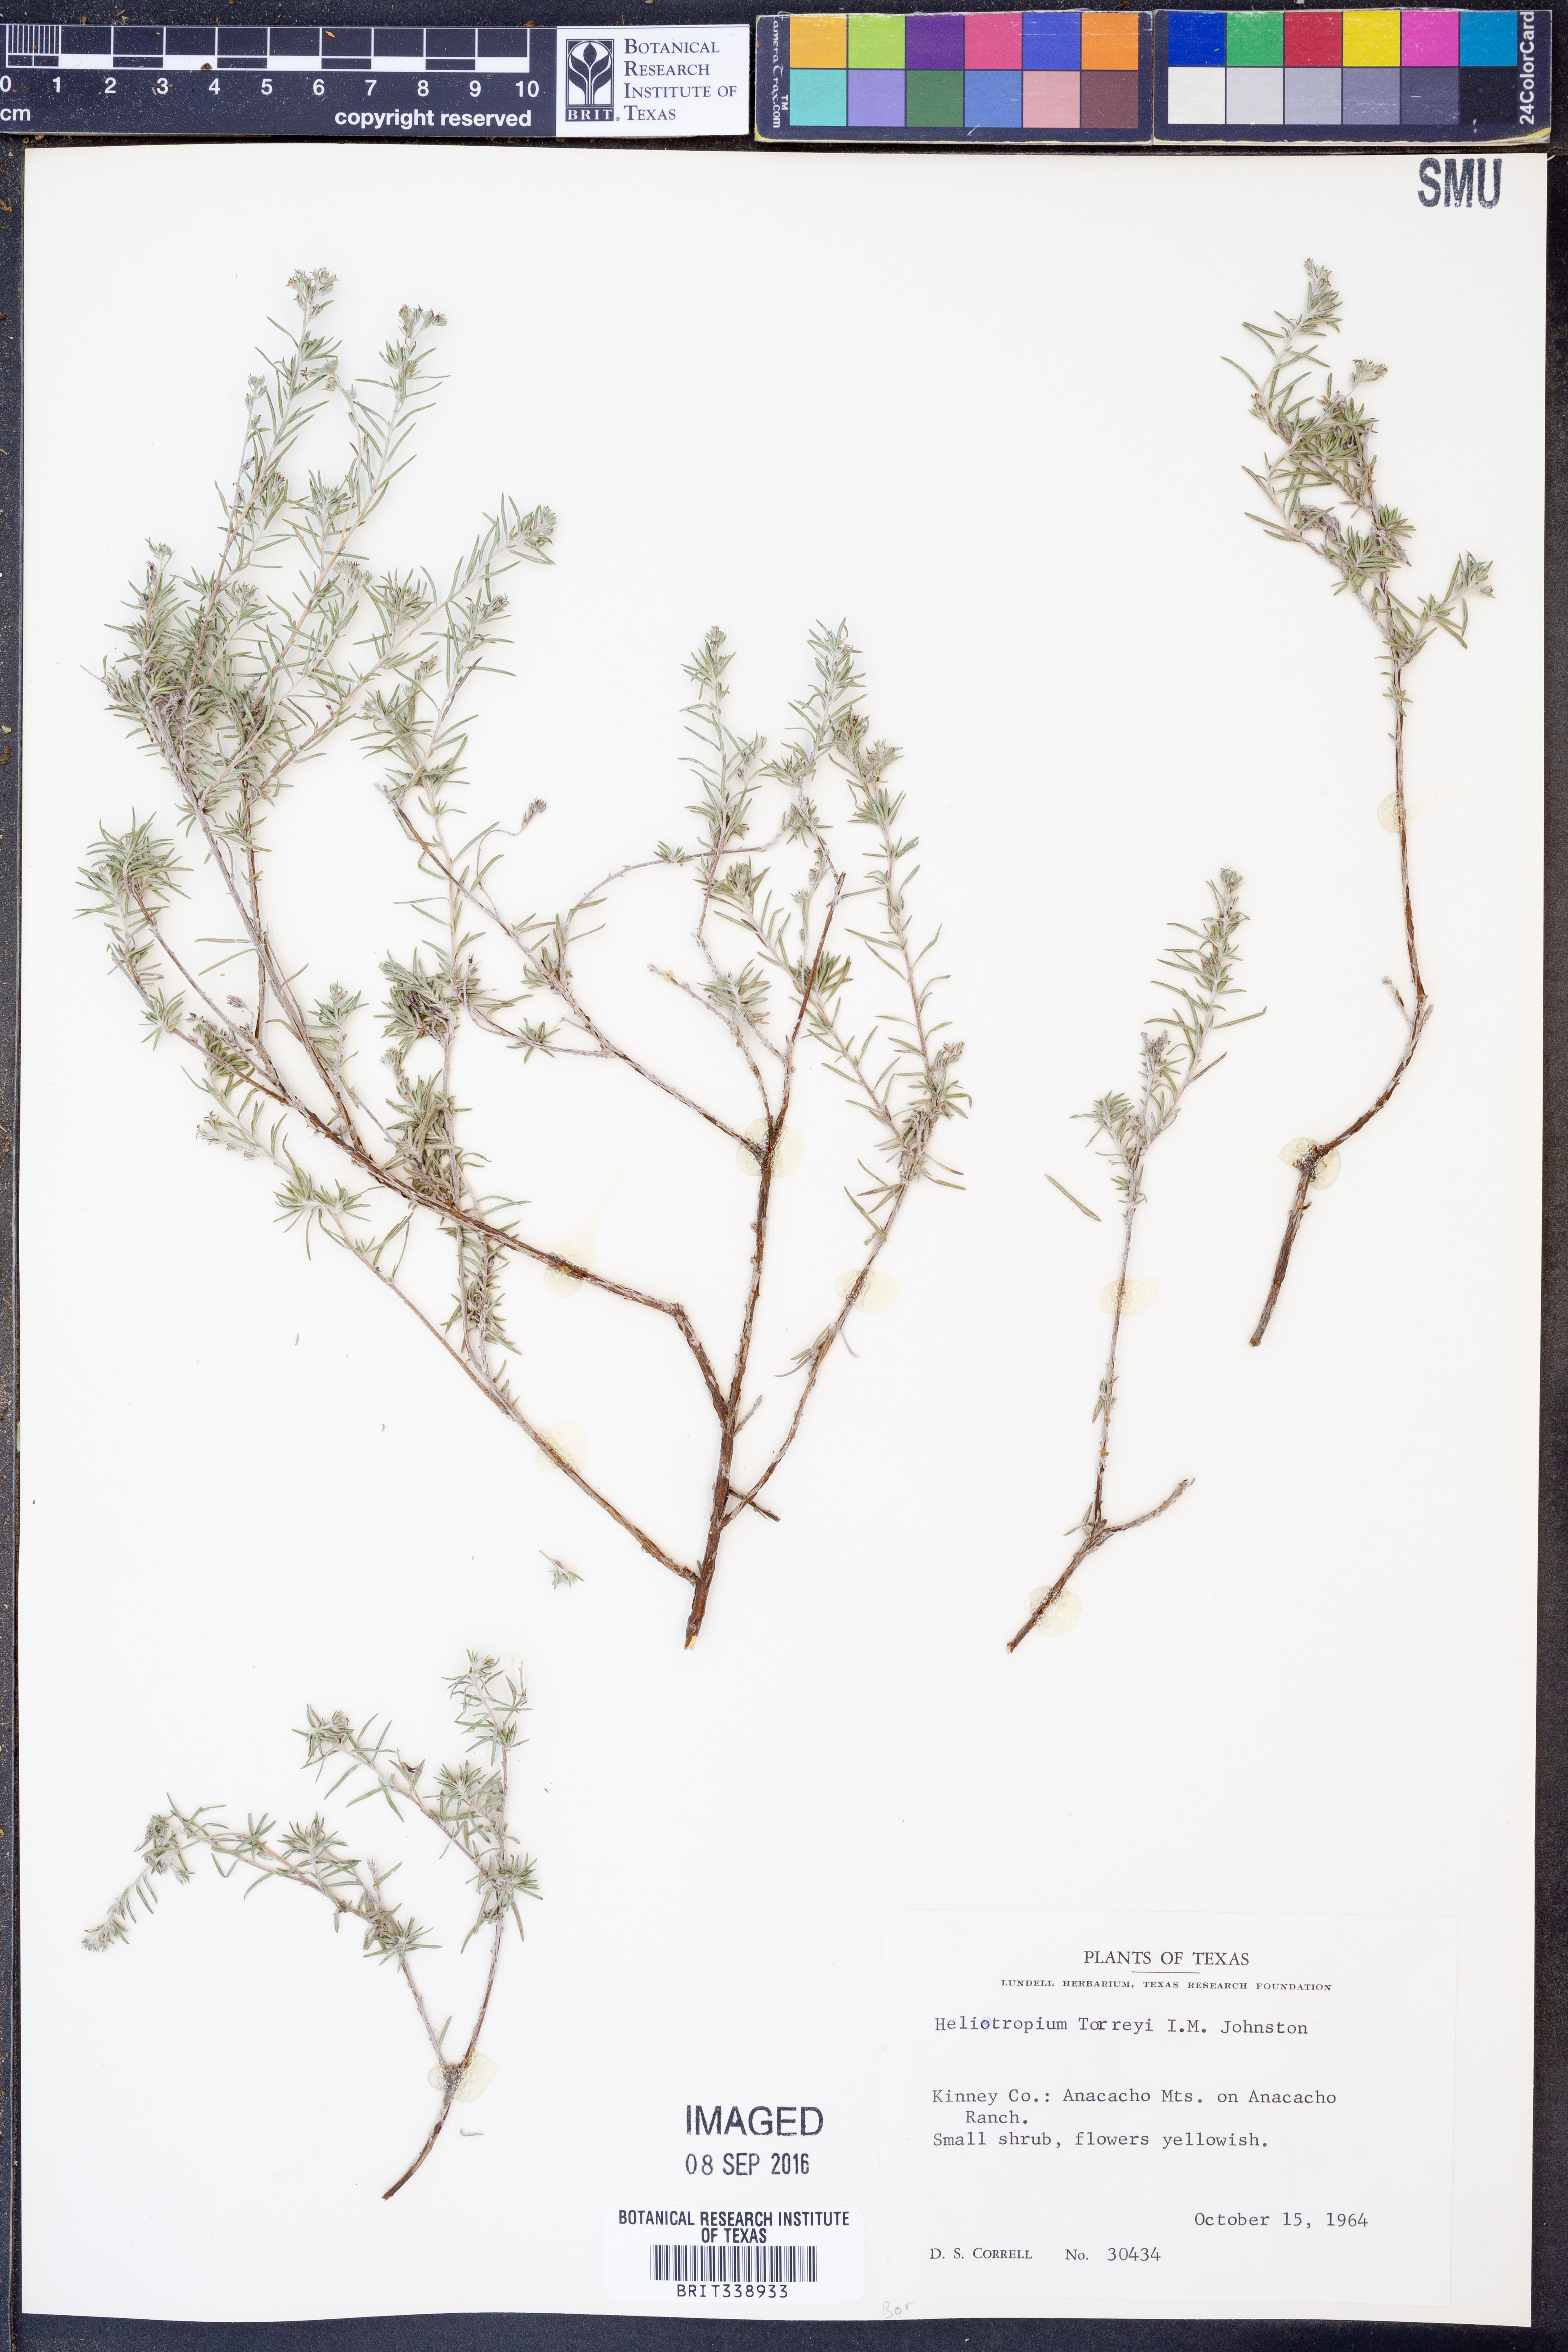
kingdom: Plantae
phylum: Tracheophyta
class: Magnoliopsida
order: Boraginales
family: Heliotropiaceae
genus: Euploca
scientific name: Euploca torreyi
